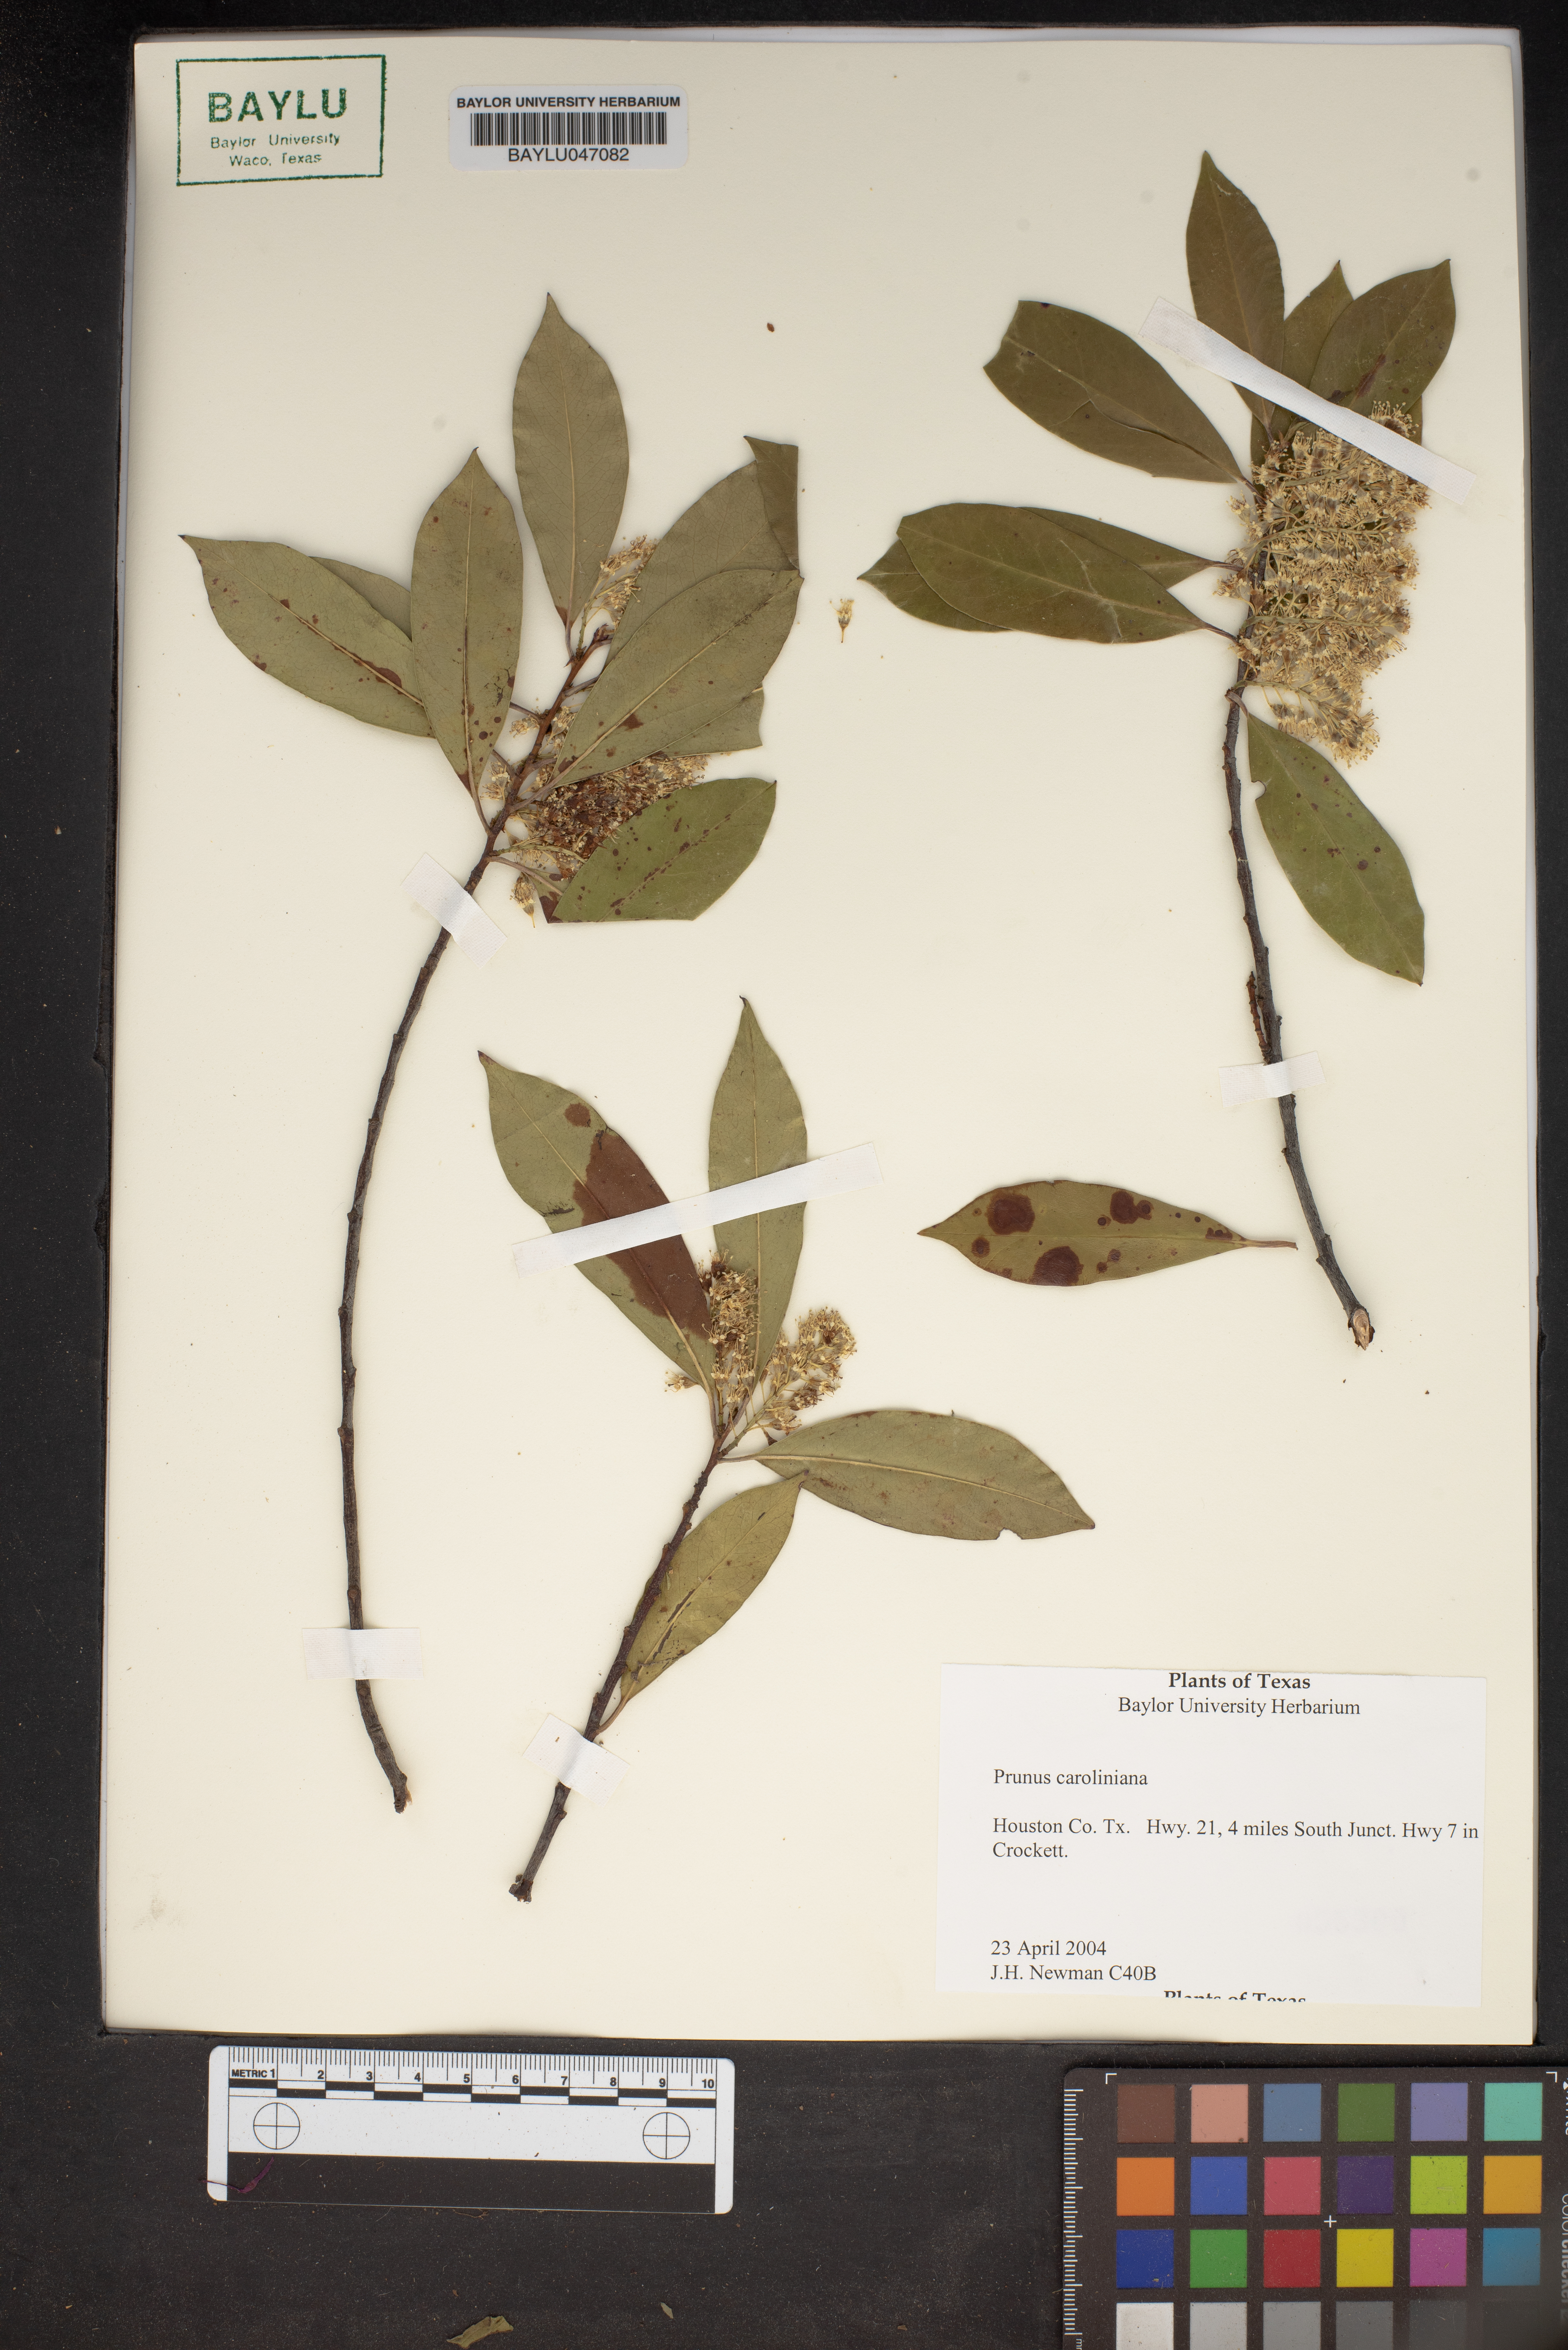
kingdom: Plantae
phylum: Tracheophyta
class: Magnoliopsida
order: Rosales
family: Rosaceae
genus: Prunus
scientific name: Prunus caroliniana
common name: Carolina laurel cherry
